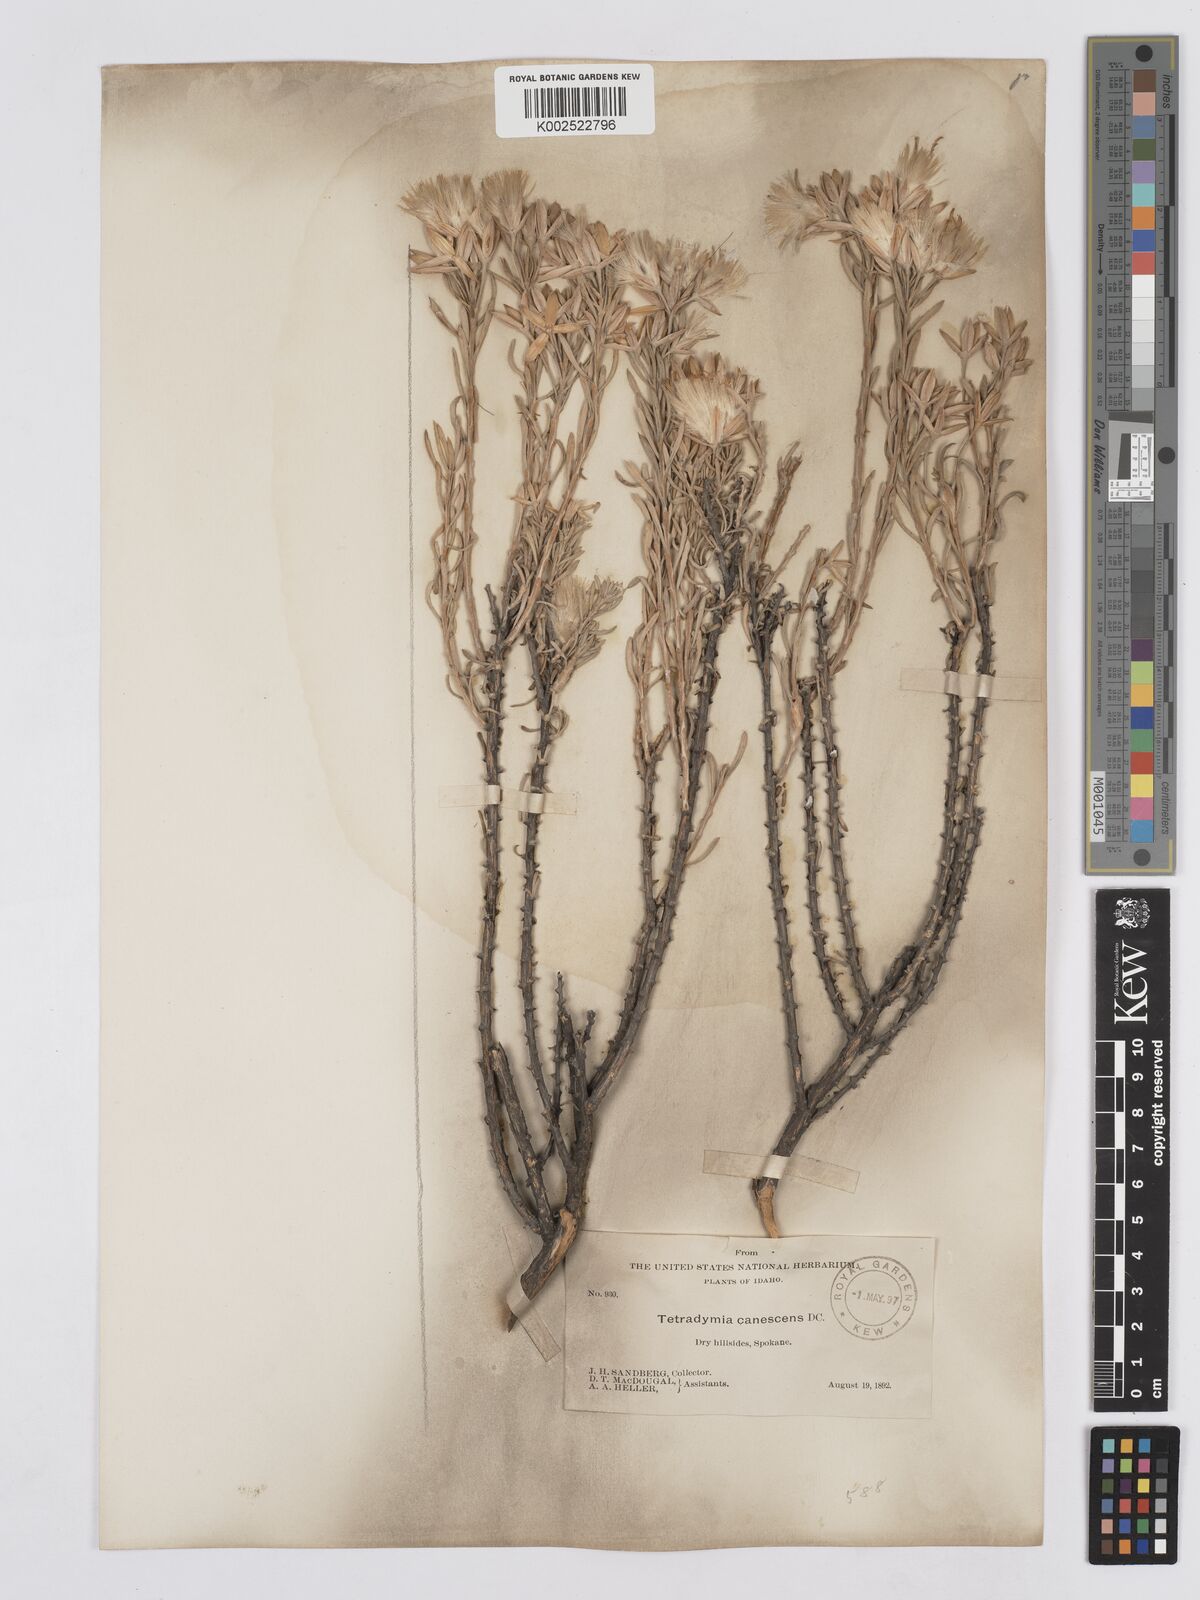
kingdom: Plantae
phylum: Tracheophyta
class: Magnoliopsida
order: Asterales
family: Asteraceae
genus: Tetradymia
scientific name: Tetradymia canescens
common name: Spineless horsebrush
